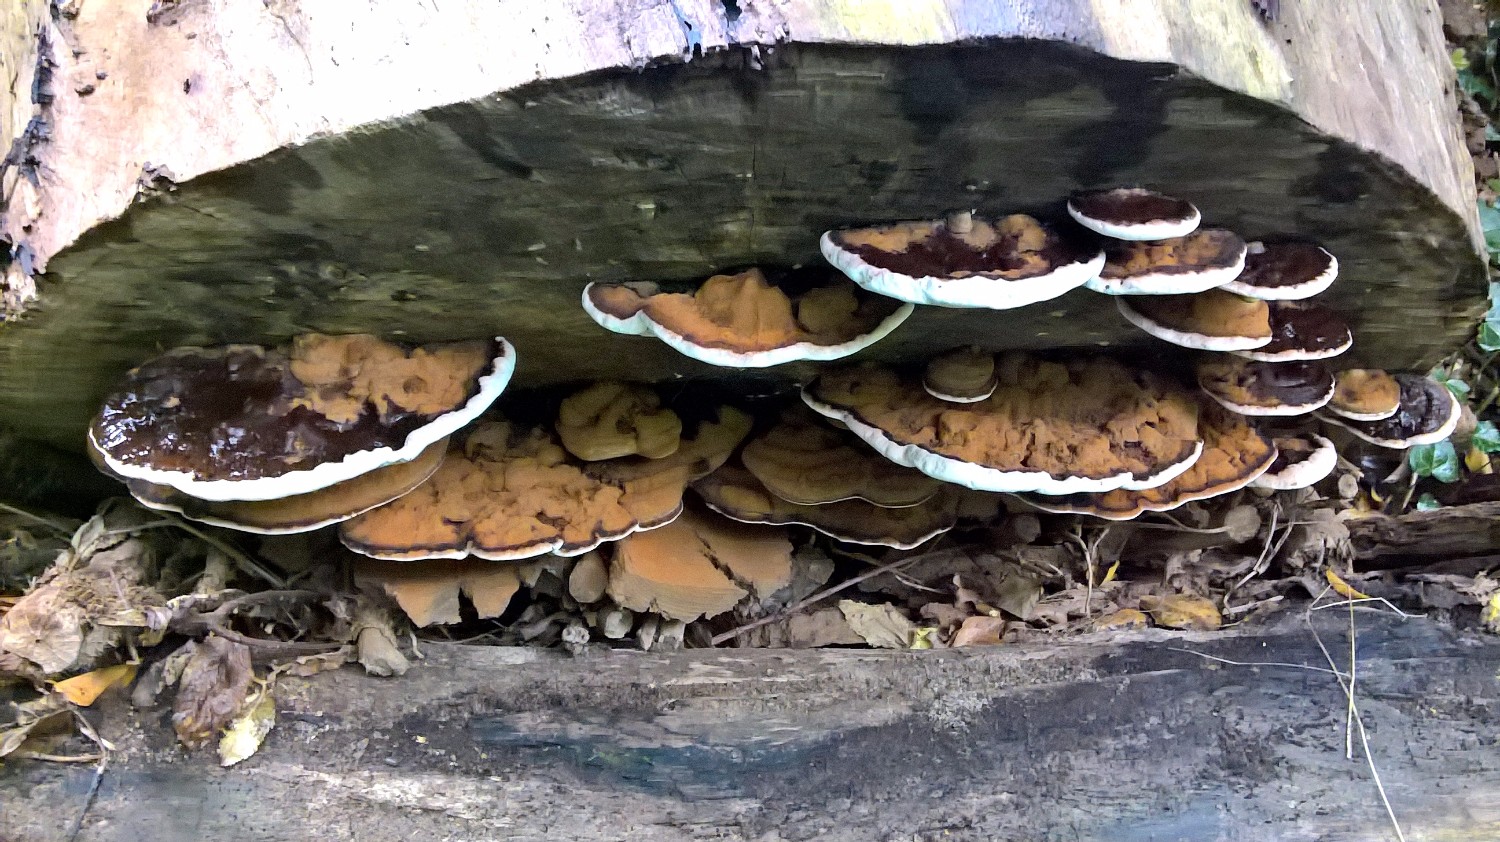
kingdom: Fungi
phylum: Basidiomycota
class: Agaricomycetes
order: Polyporales
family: Polyporaceae
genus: Ganoderma
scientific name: Ganoderma applanatum
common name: flad lakporesvamp
